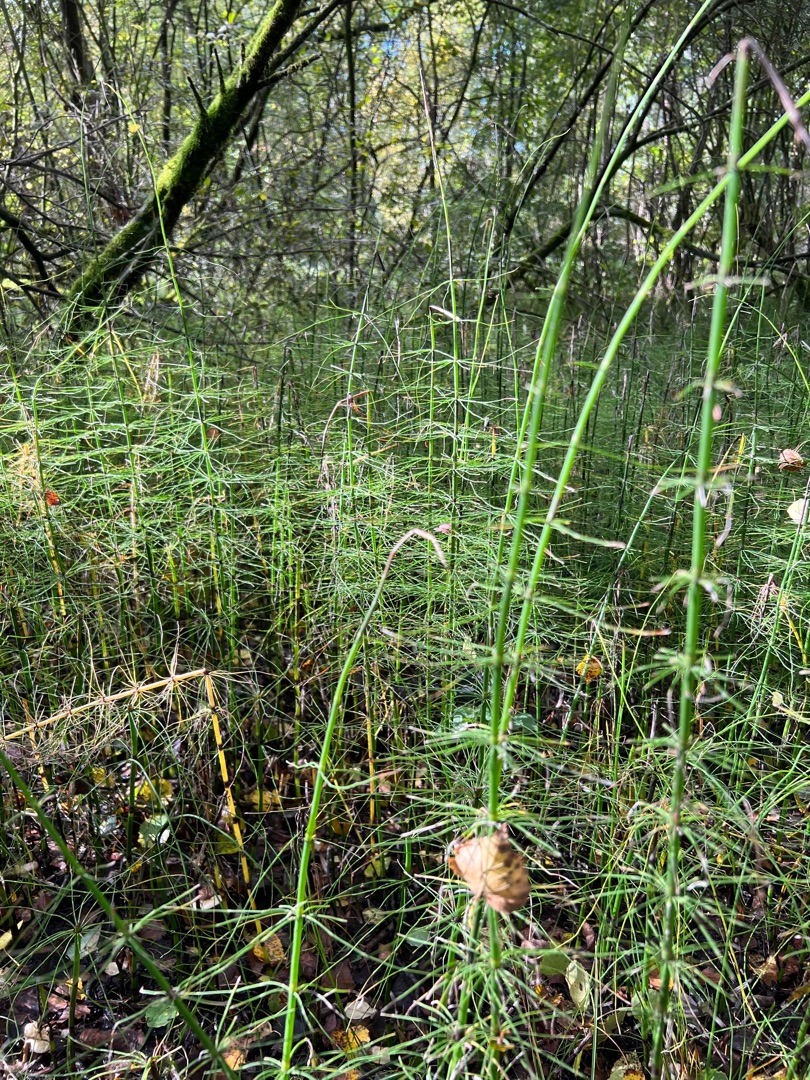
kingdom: Plantae
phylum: Tracheophyta
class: Polypodiopsida
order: Equisetales
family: Equisetaceae
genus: Equisetum
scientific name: Equisetum fluviatile
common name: Dynd-padderok
